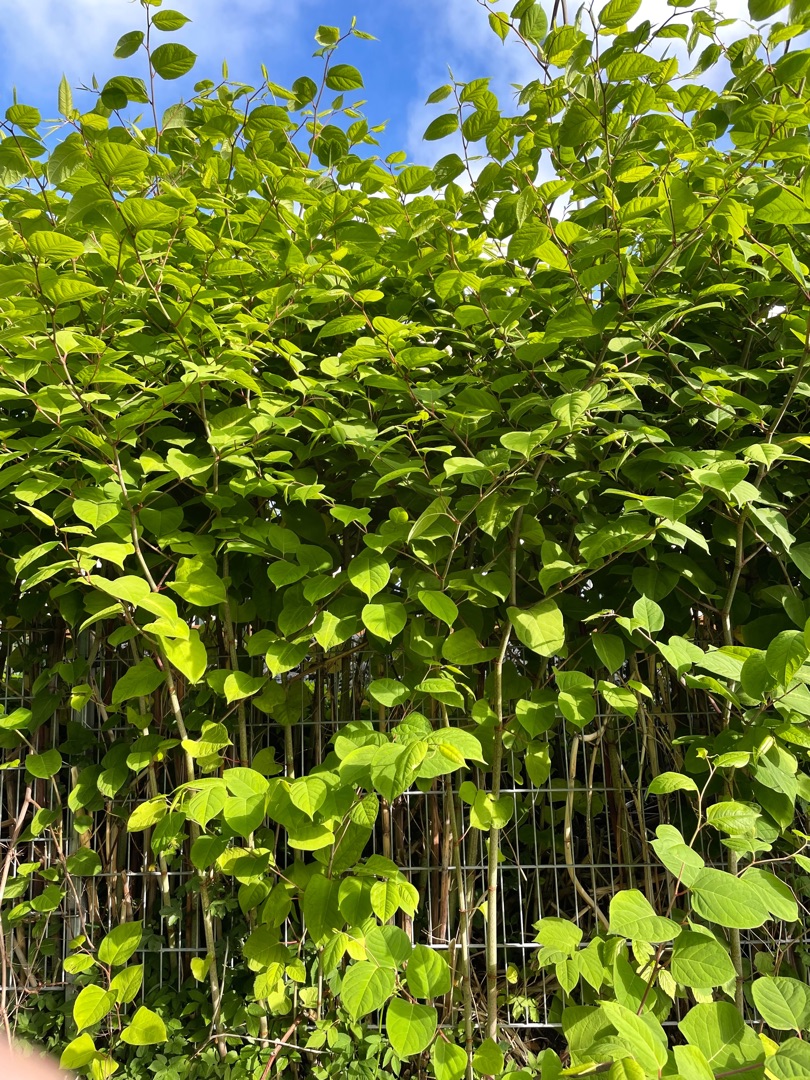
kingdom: Plantae
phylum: Tracheophyta
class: Magnoliopsida
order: Caryophyllales
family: Polygonaceae
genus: Reynoutria
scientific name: Reynoutria japonica
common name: Japan-pileurt
